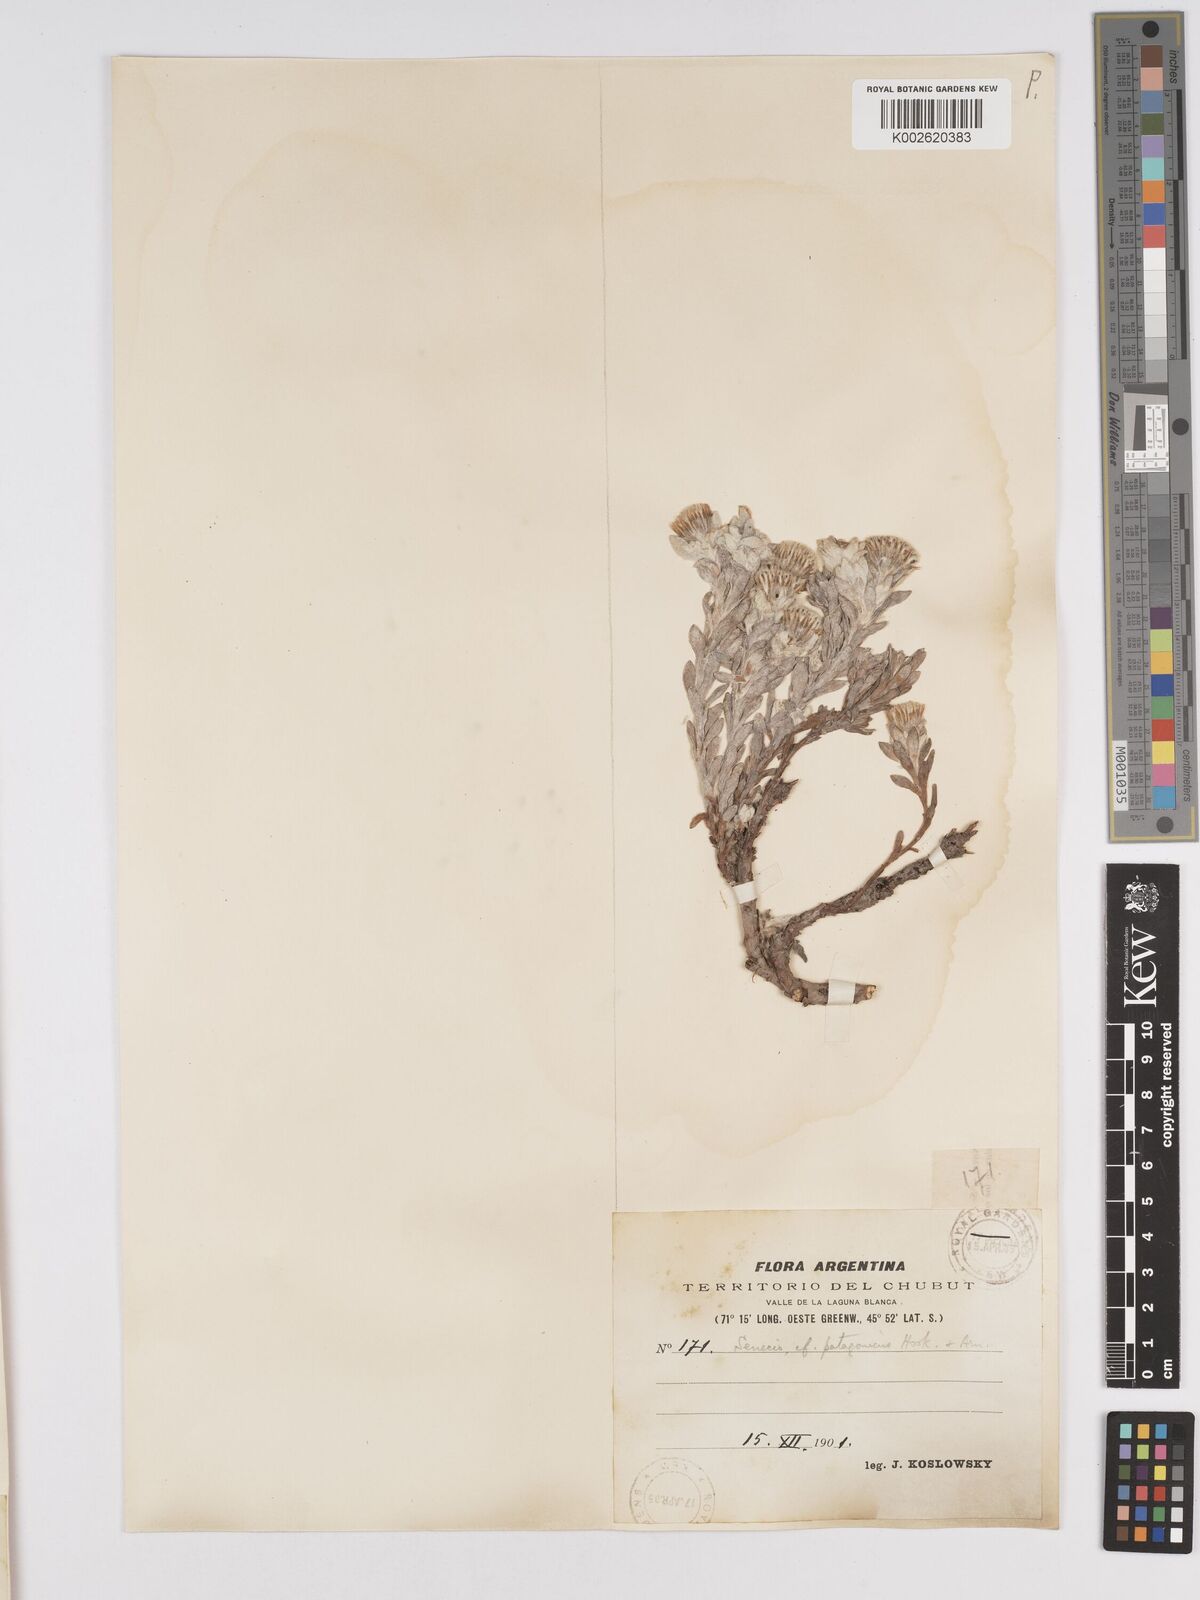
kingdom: Plantae
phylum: Tracheophyta
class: Magnoliopsida
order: Asterales
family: Asteraceae
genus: Senecio
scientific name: Senecio patagonicus
